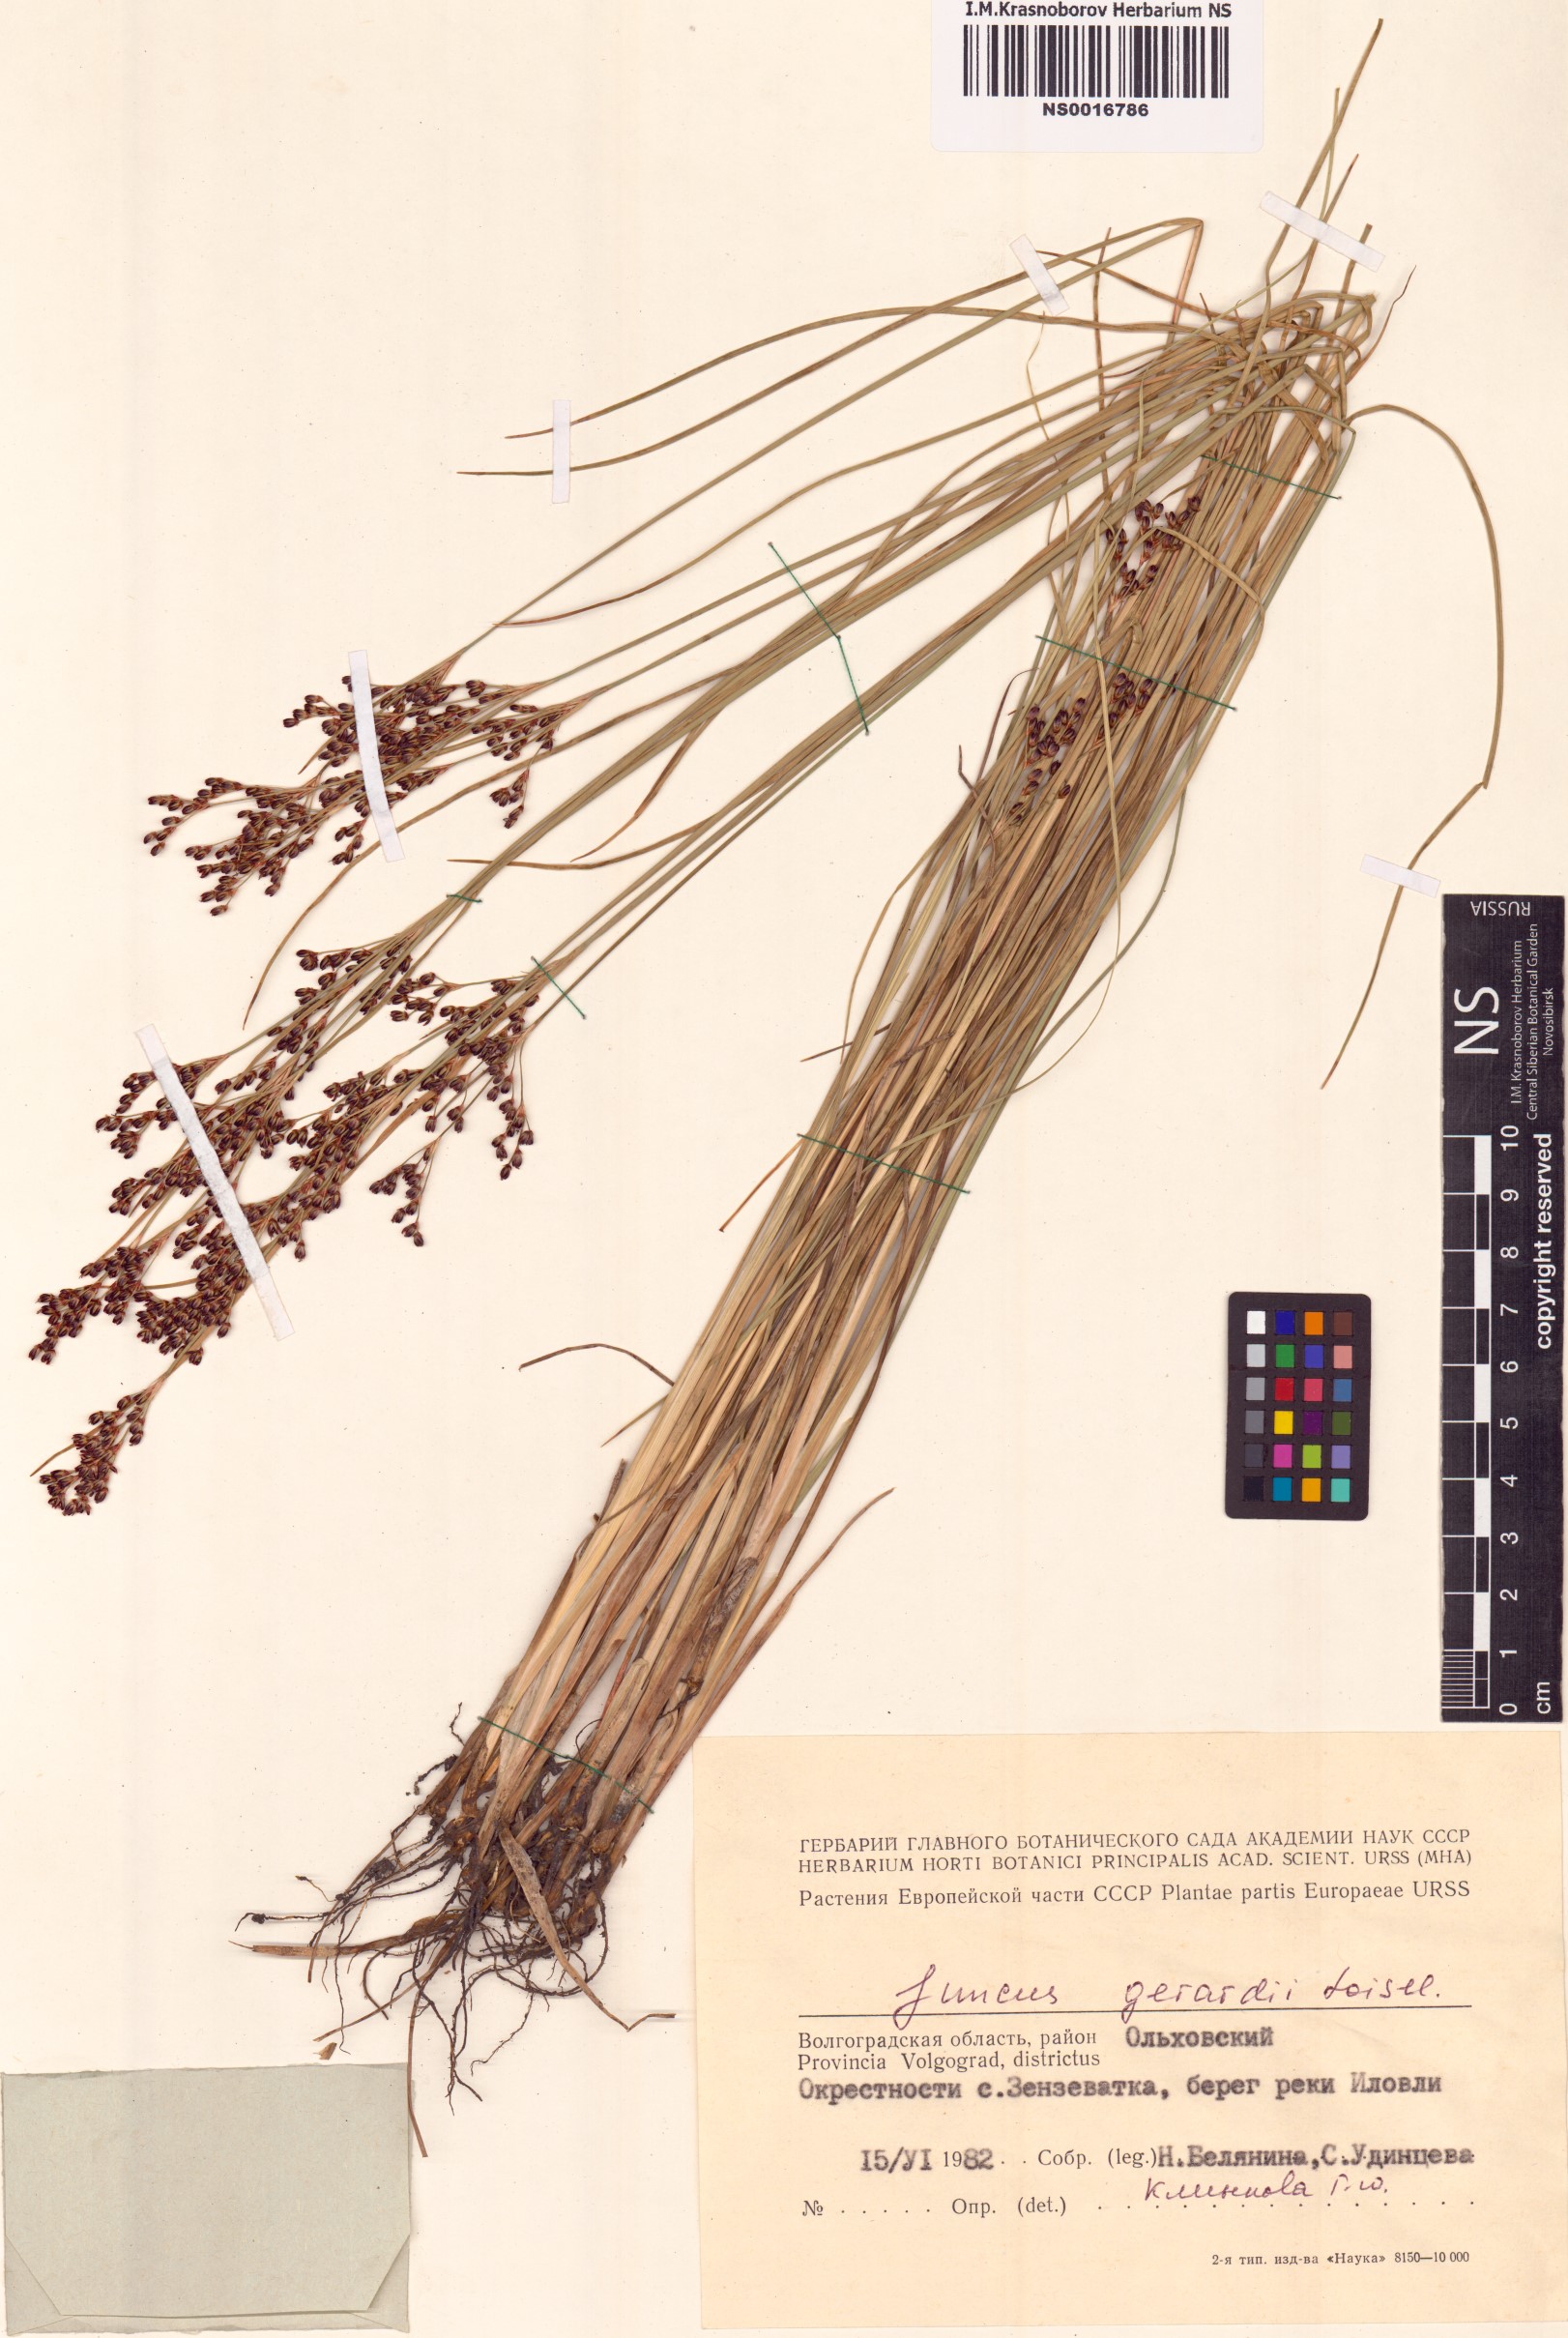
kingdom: Plantae
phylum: Tracheophyta
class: Liliopsida
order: Poales
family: Juncaceae
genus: Juncus
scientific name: Juncus gerardi
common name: Saltmarsh rush
